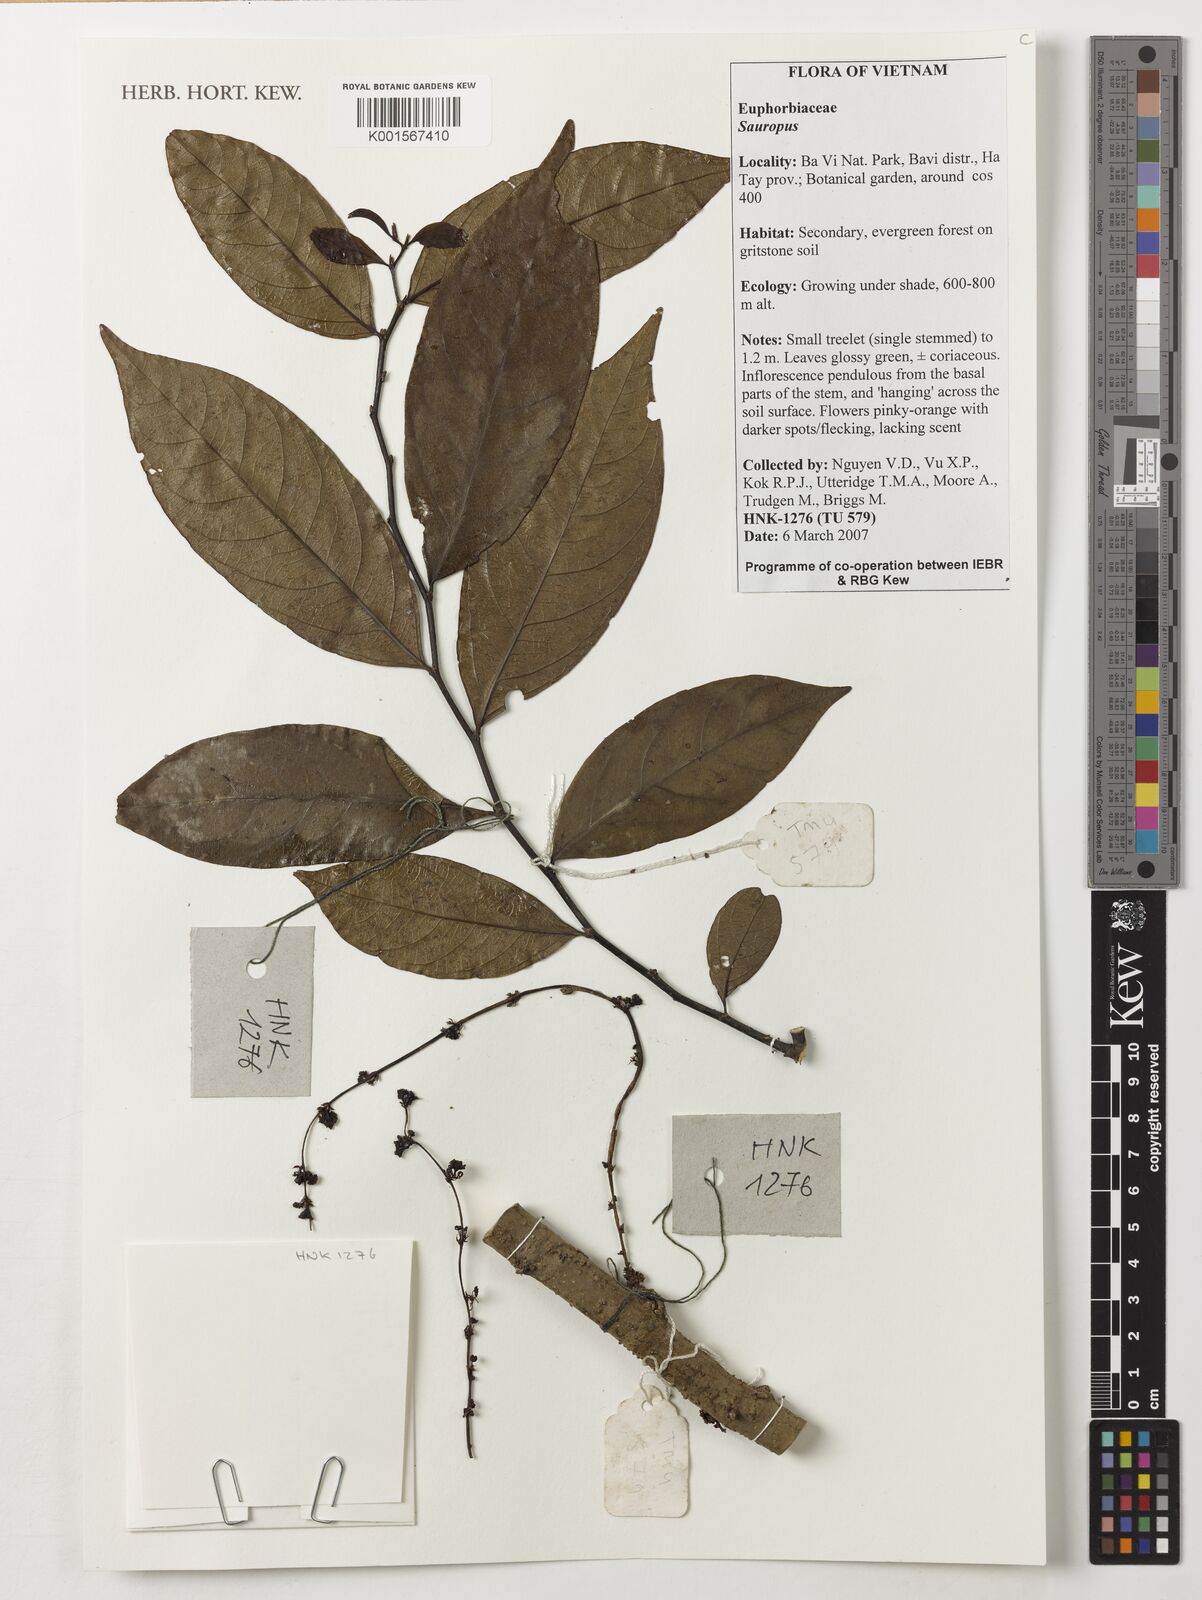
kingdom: Plantae
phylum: Tracheophyta
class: Magnoliopsida
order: Malpighiales
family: Phyllanthaceae
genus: Aporosa
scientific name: Aporosa
